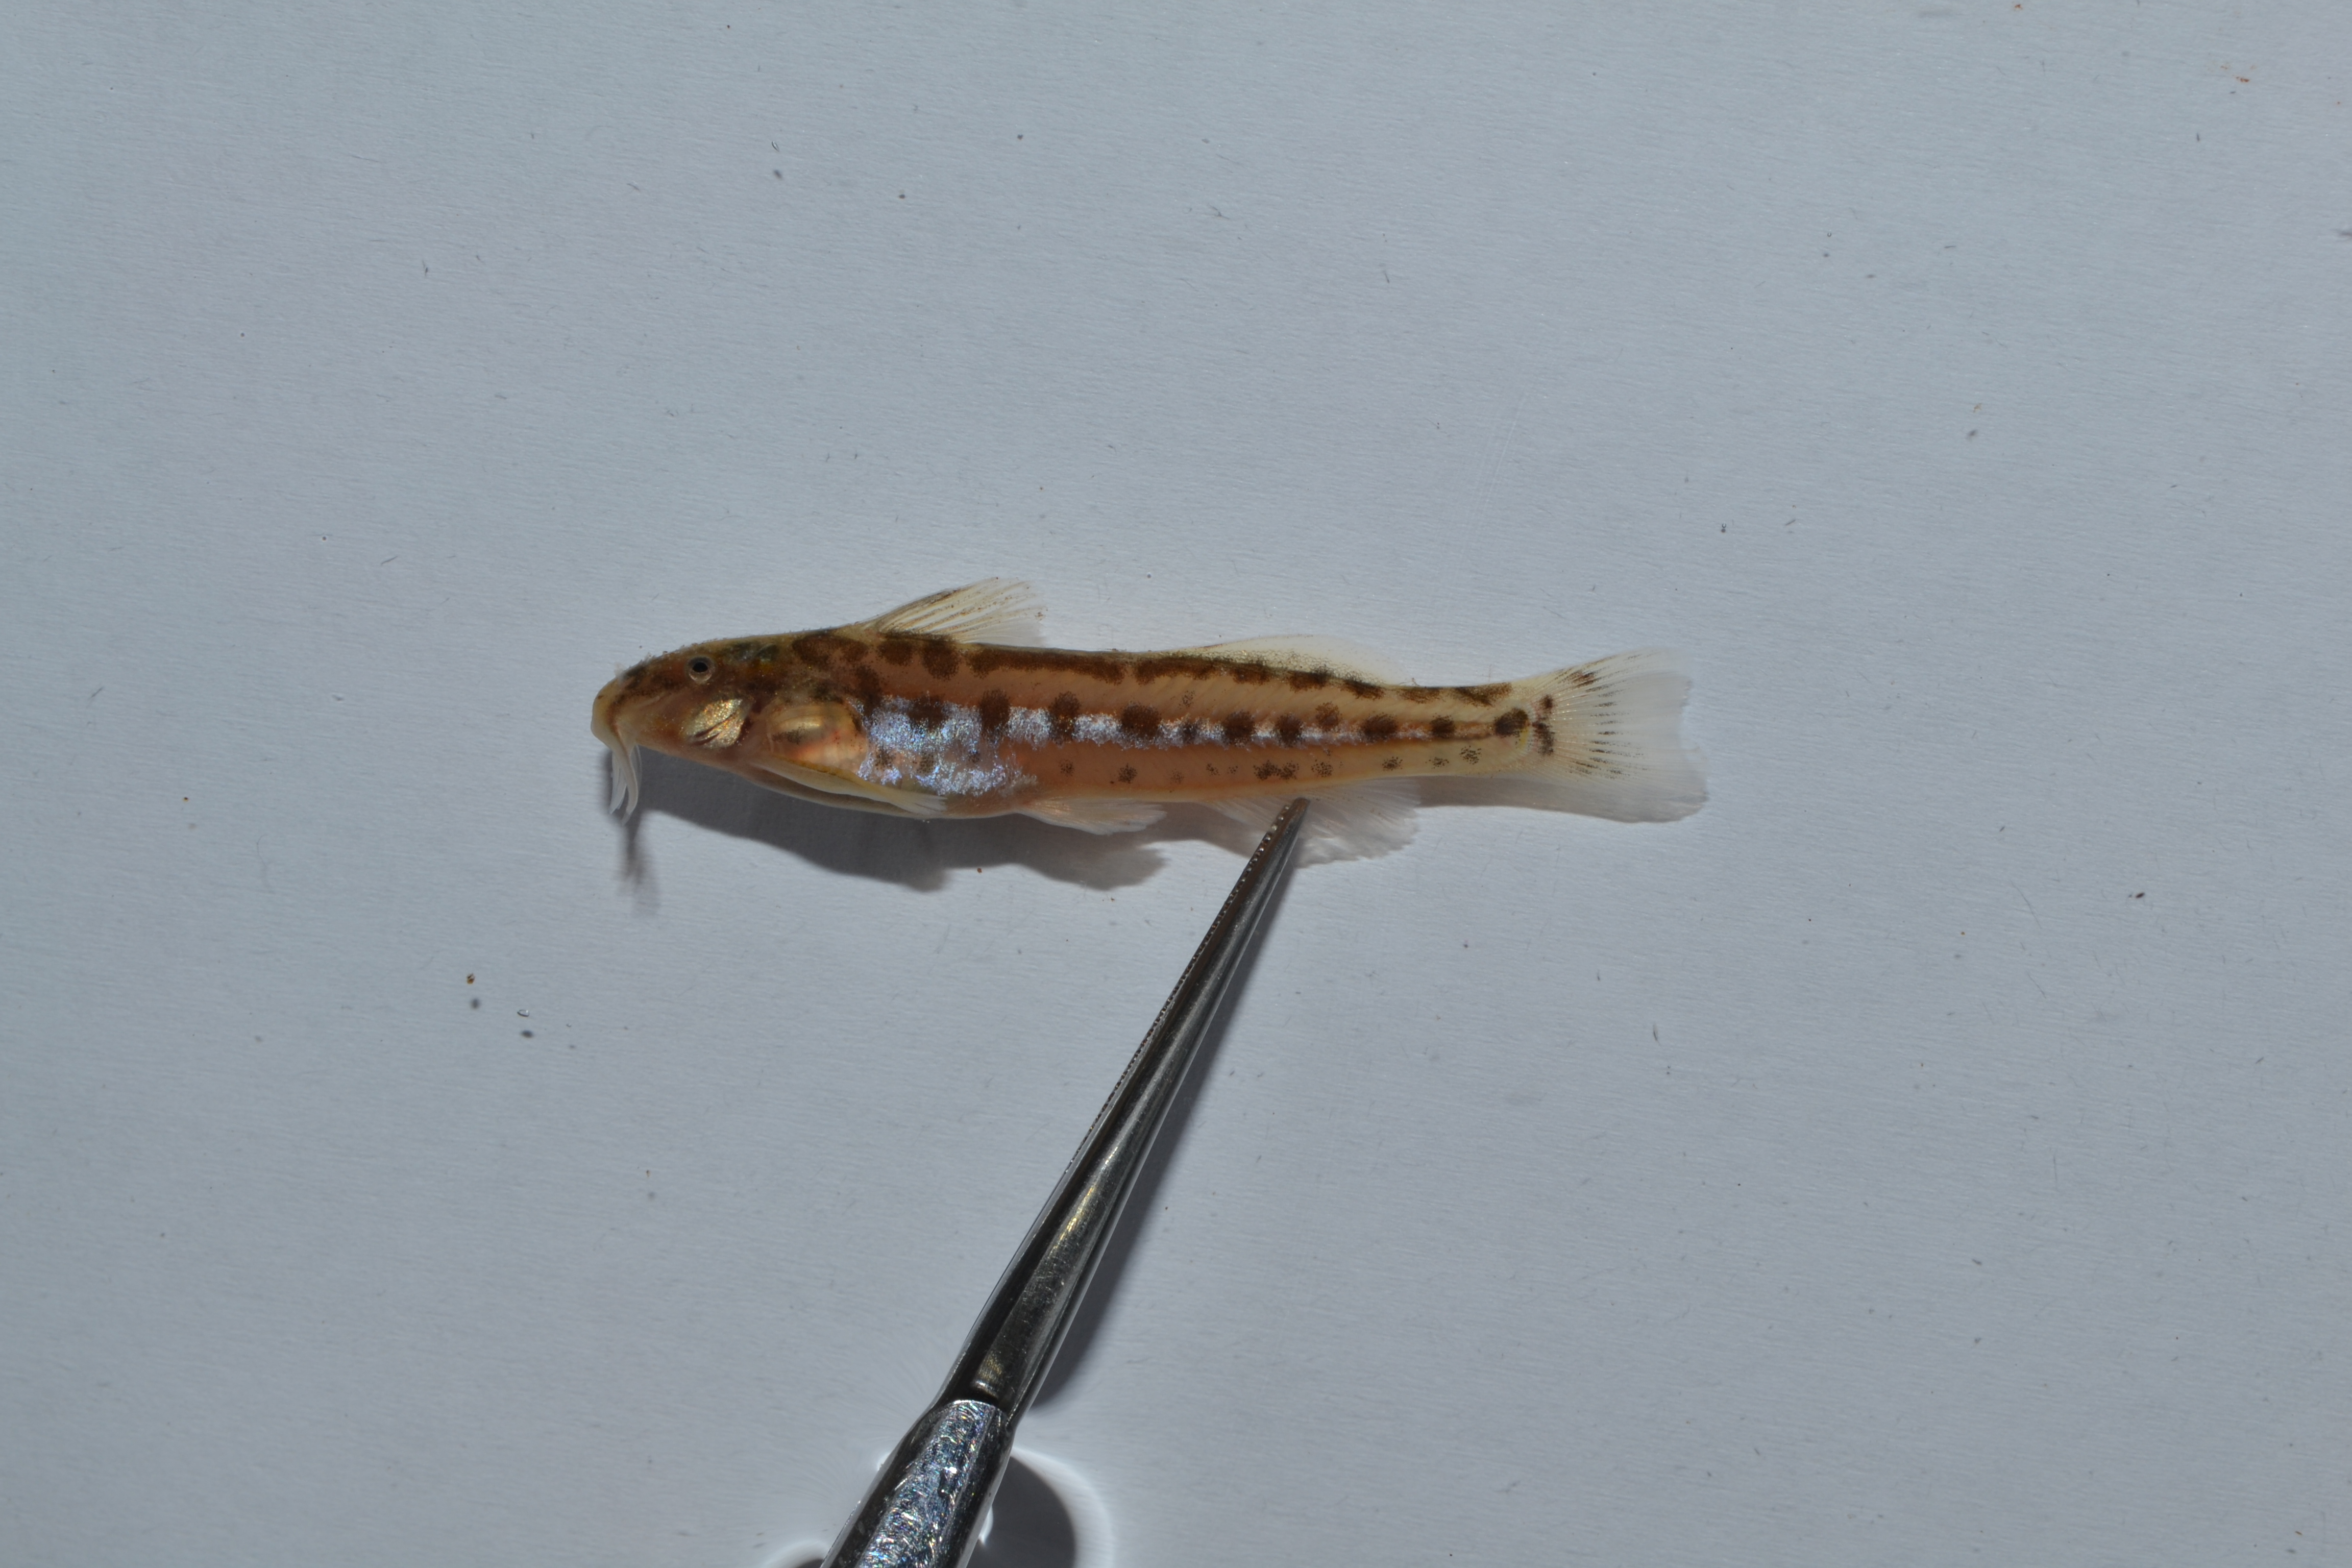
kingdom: Animalia
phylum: Chordata
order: Siluriformes
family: Amphiliidae
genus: Zaireichthys
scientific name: Zaireichthys
